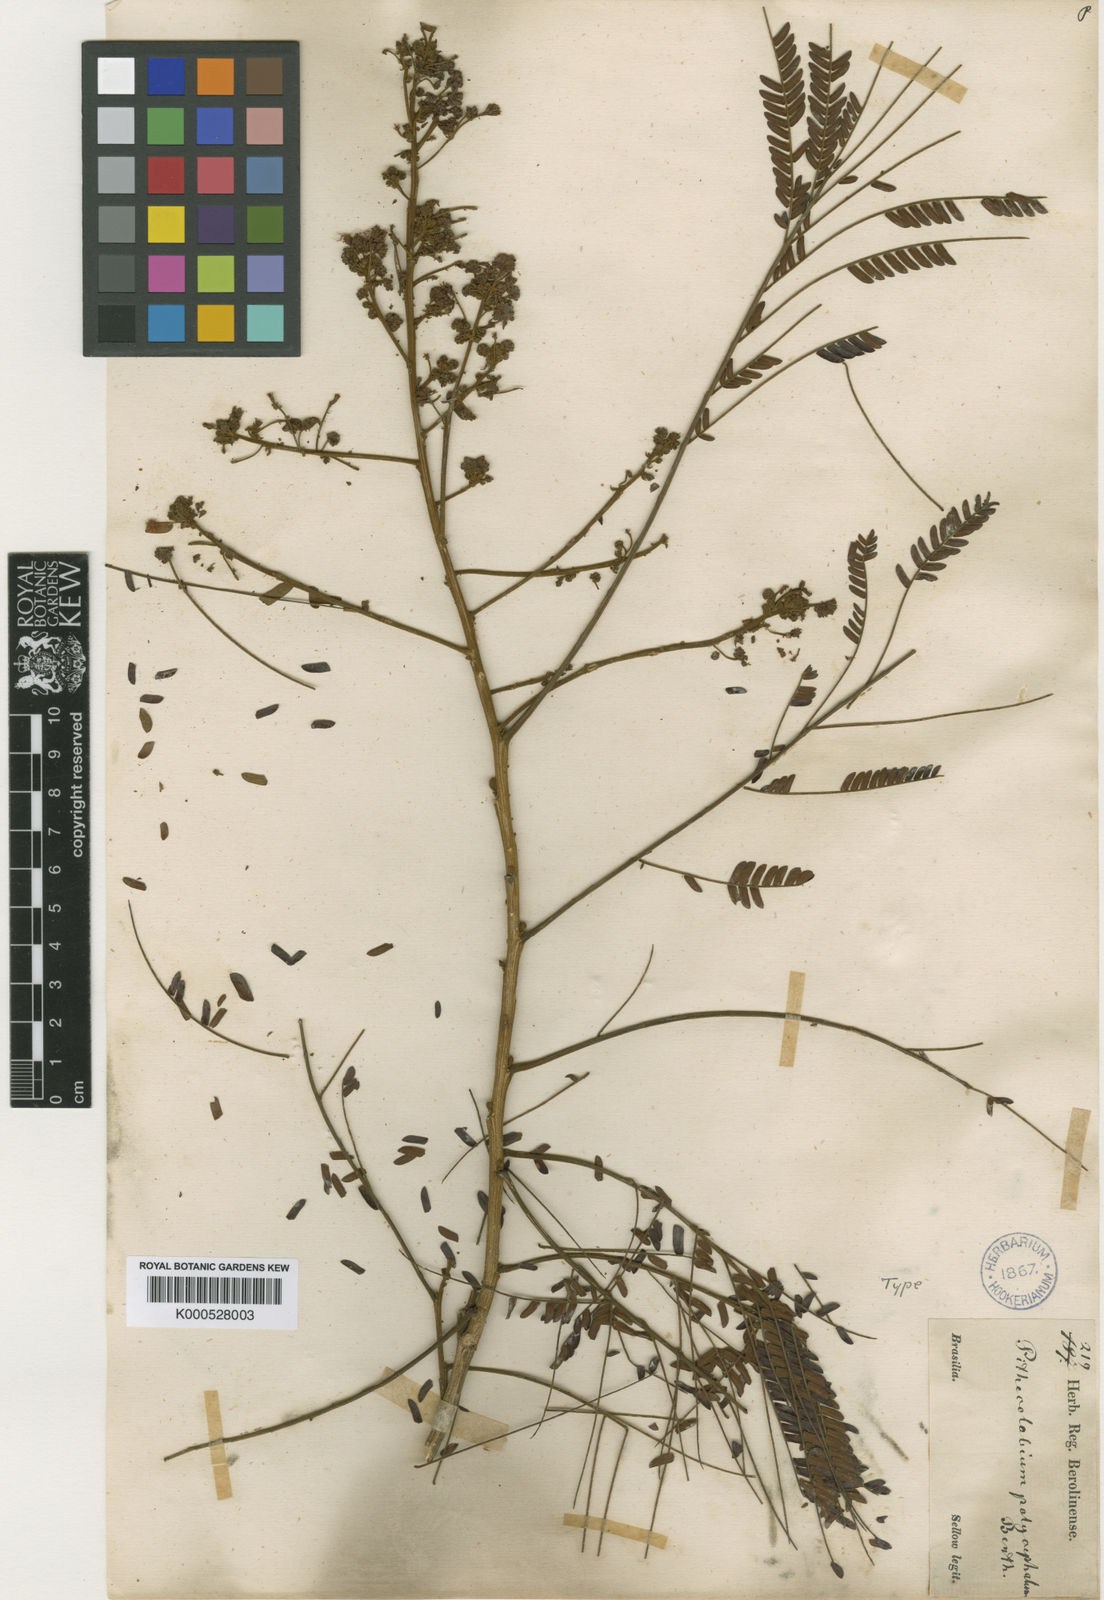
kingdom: Plantae
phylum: Tracheophyta
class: Magnoliopsida
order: Fabales
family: Fabaceae
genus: Albizia
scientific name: Albizia
